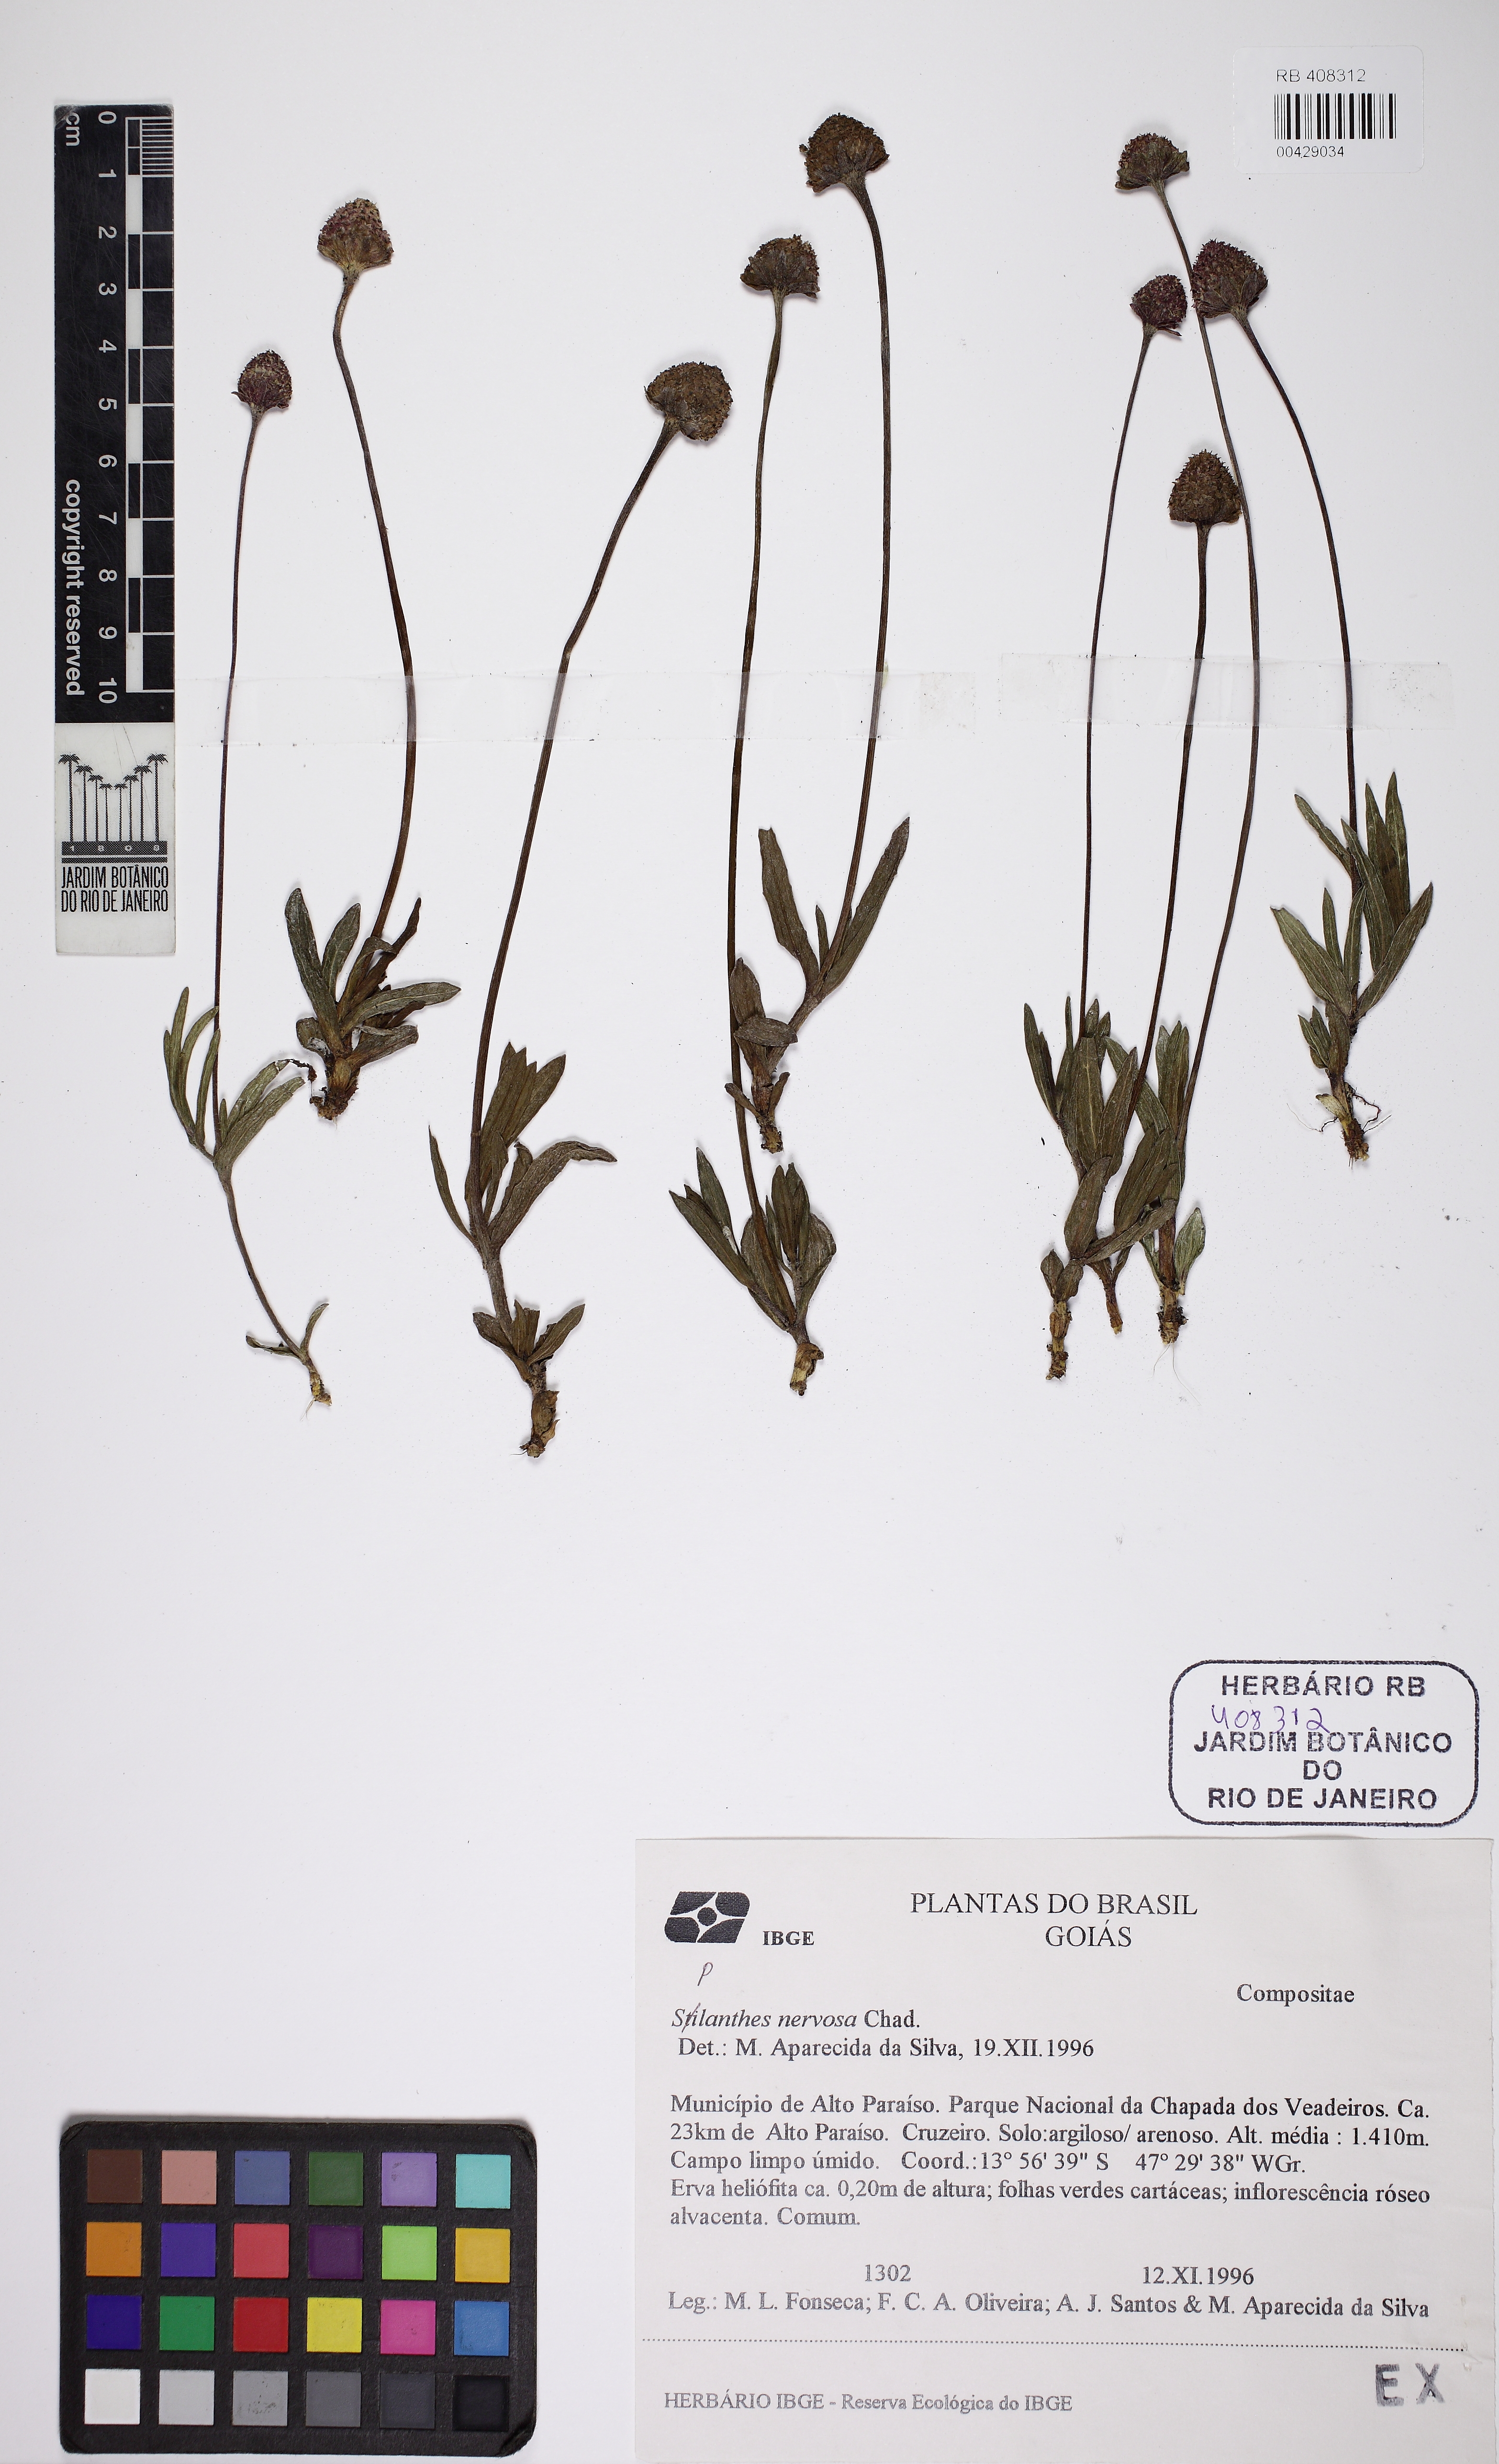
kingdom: Plantae
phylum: Tracheophyta
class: Magnoliopsida
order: Asterales
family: Asteraceae
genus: Spilanthes
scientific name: Spilanthes nervosa
